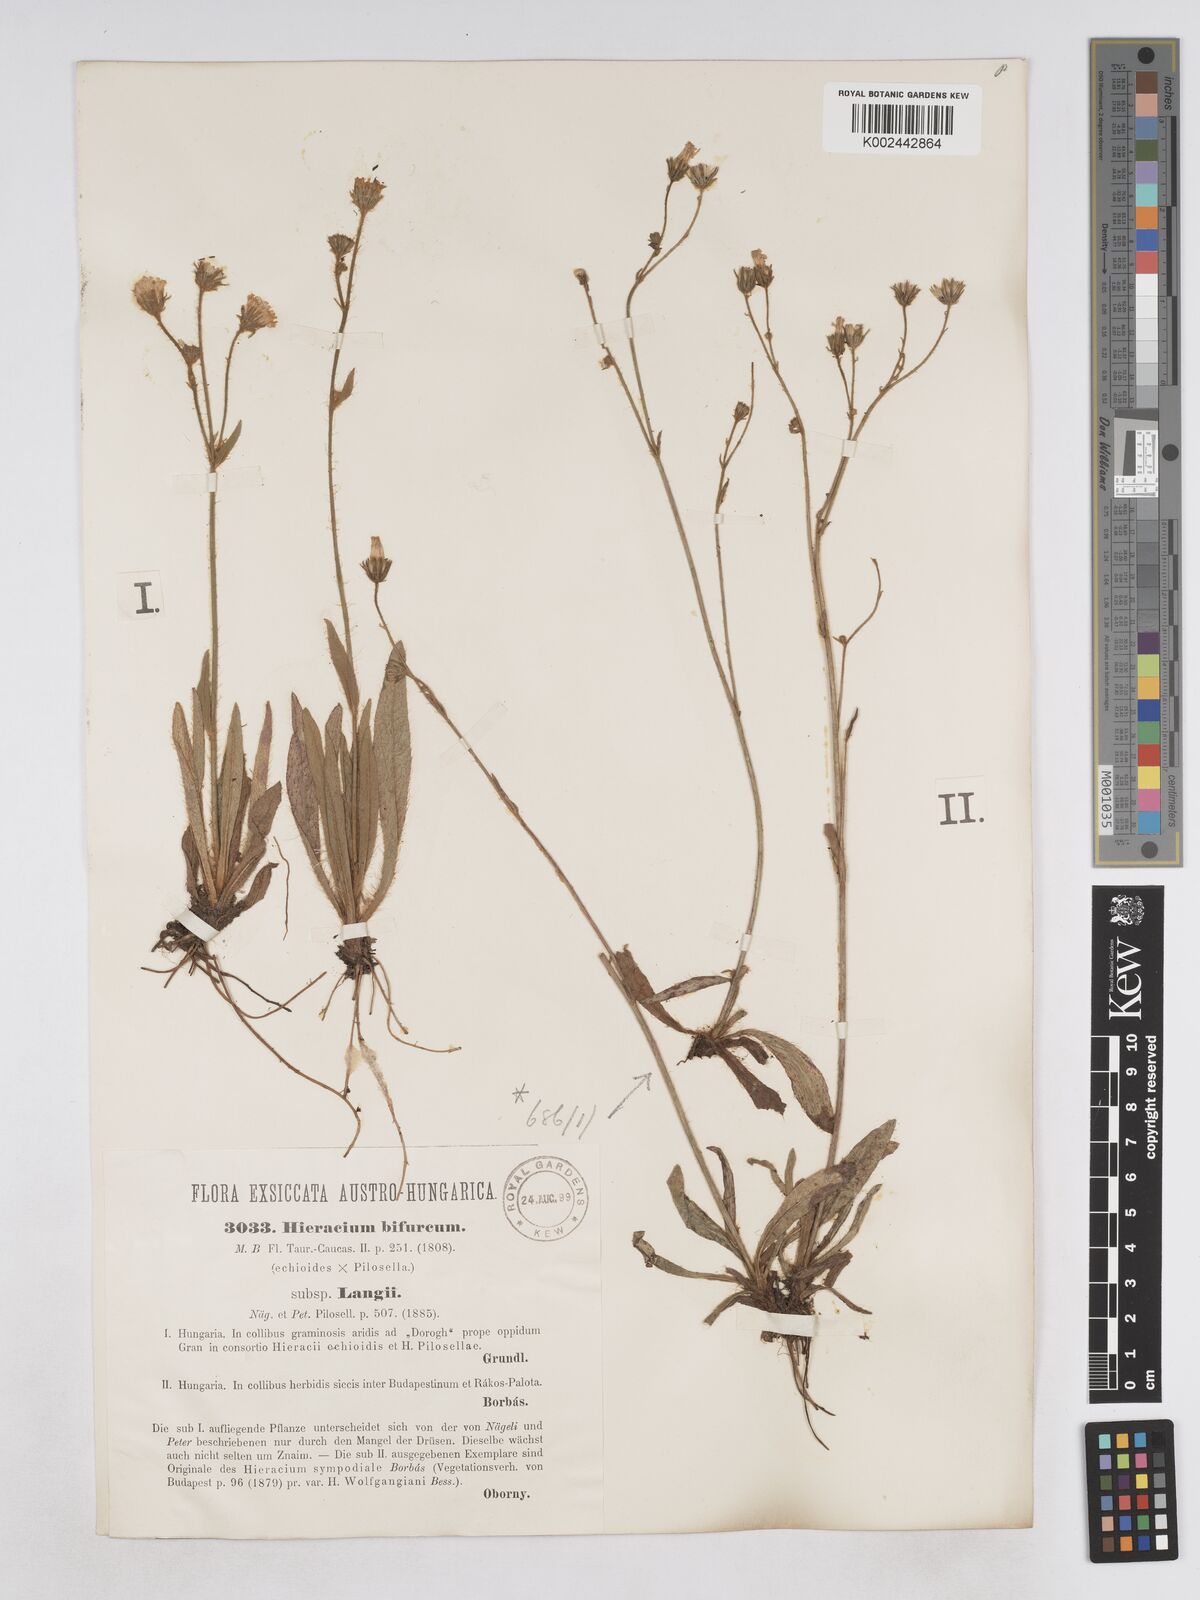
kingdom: Plantae
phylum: Tracheophyta
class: Magnoliopsida
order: Asterales
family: Asteraceae
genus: Pilosella
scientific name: Pilosella bifurca
